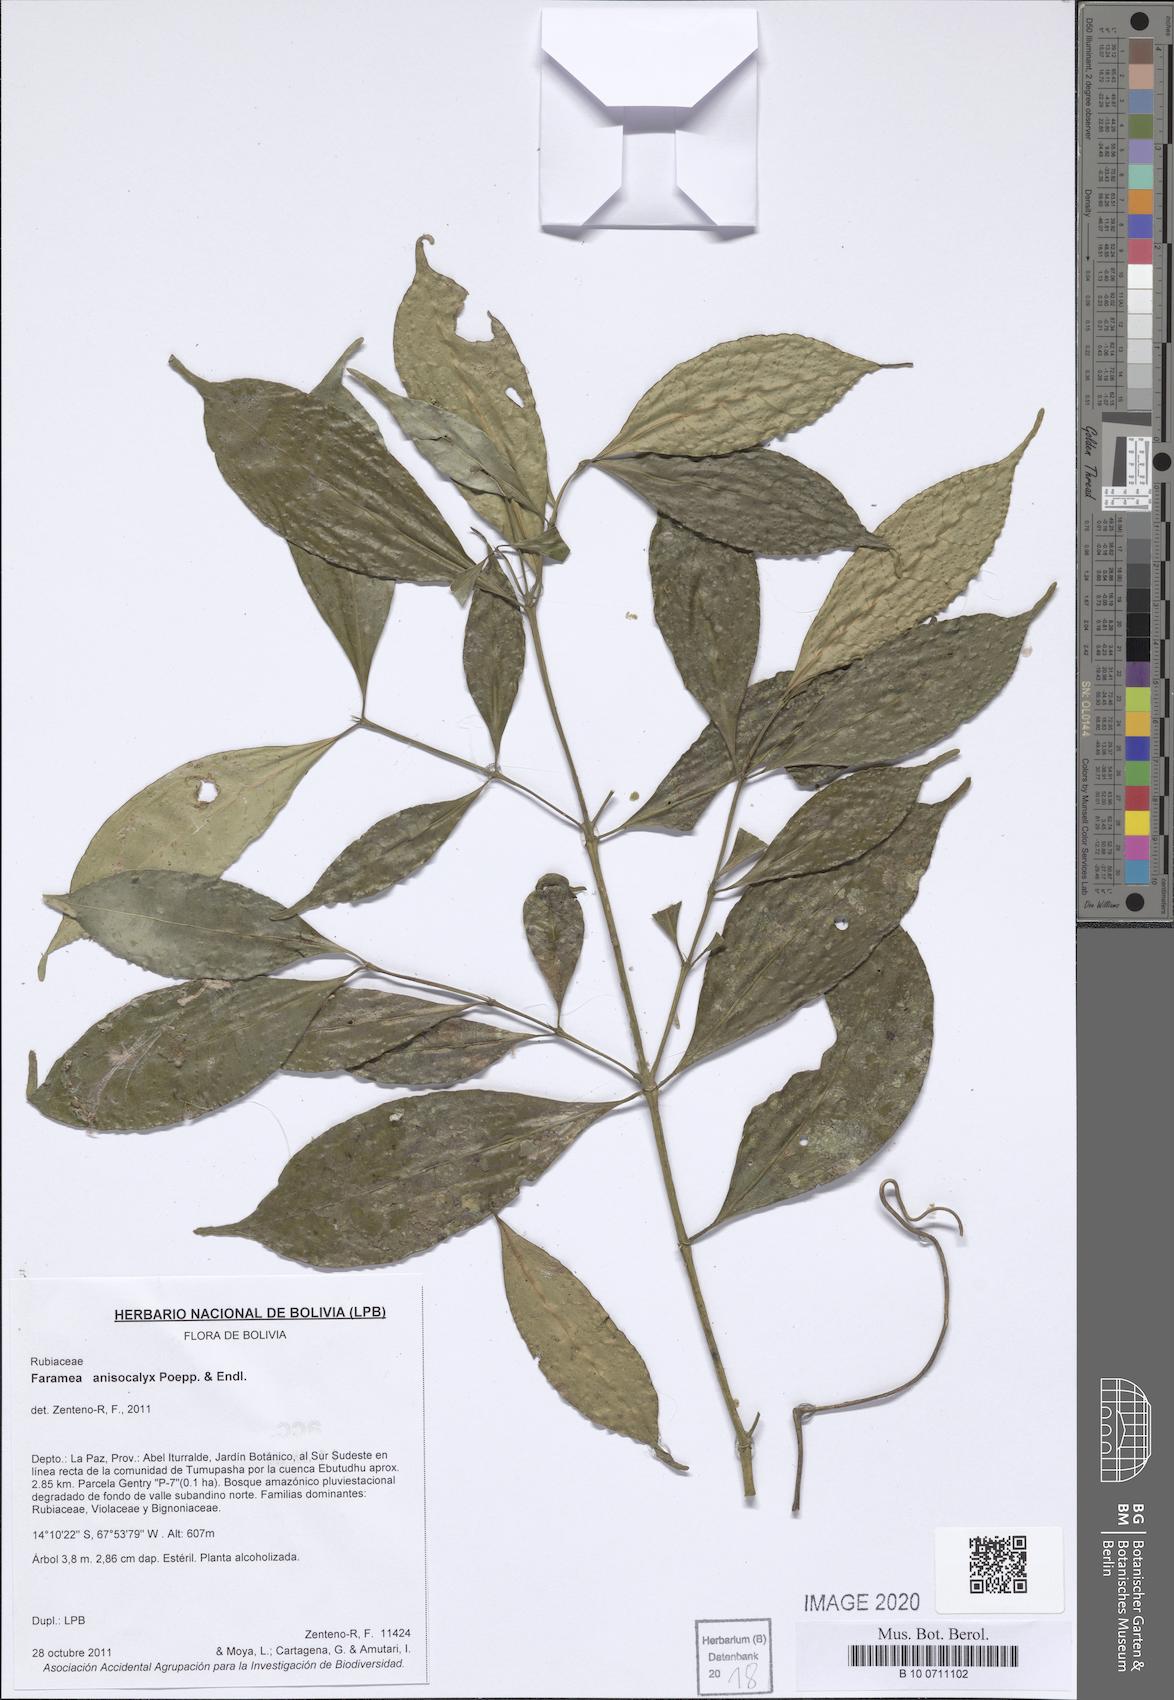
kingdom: Plantae
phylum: Tracheophyta
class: Magnoliopsida
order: Gentianales
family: Rubiaceae
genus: Faramea
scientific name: Faramea anisocalyx
